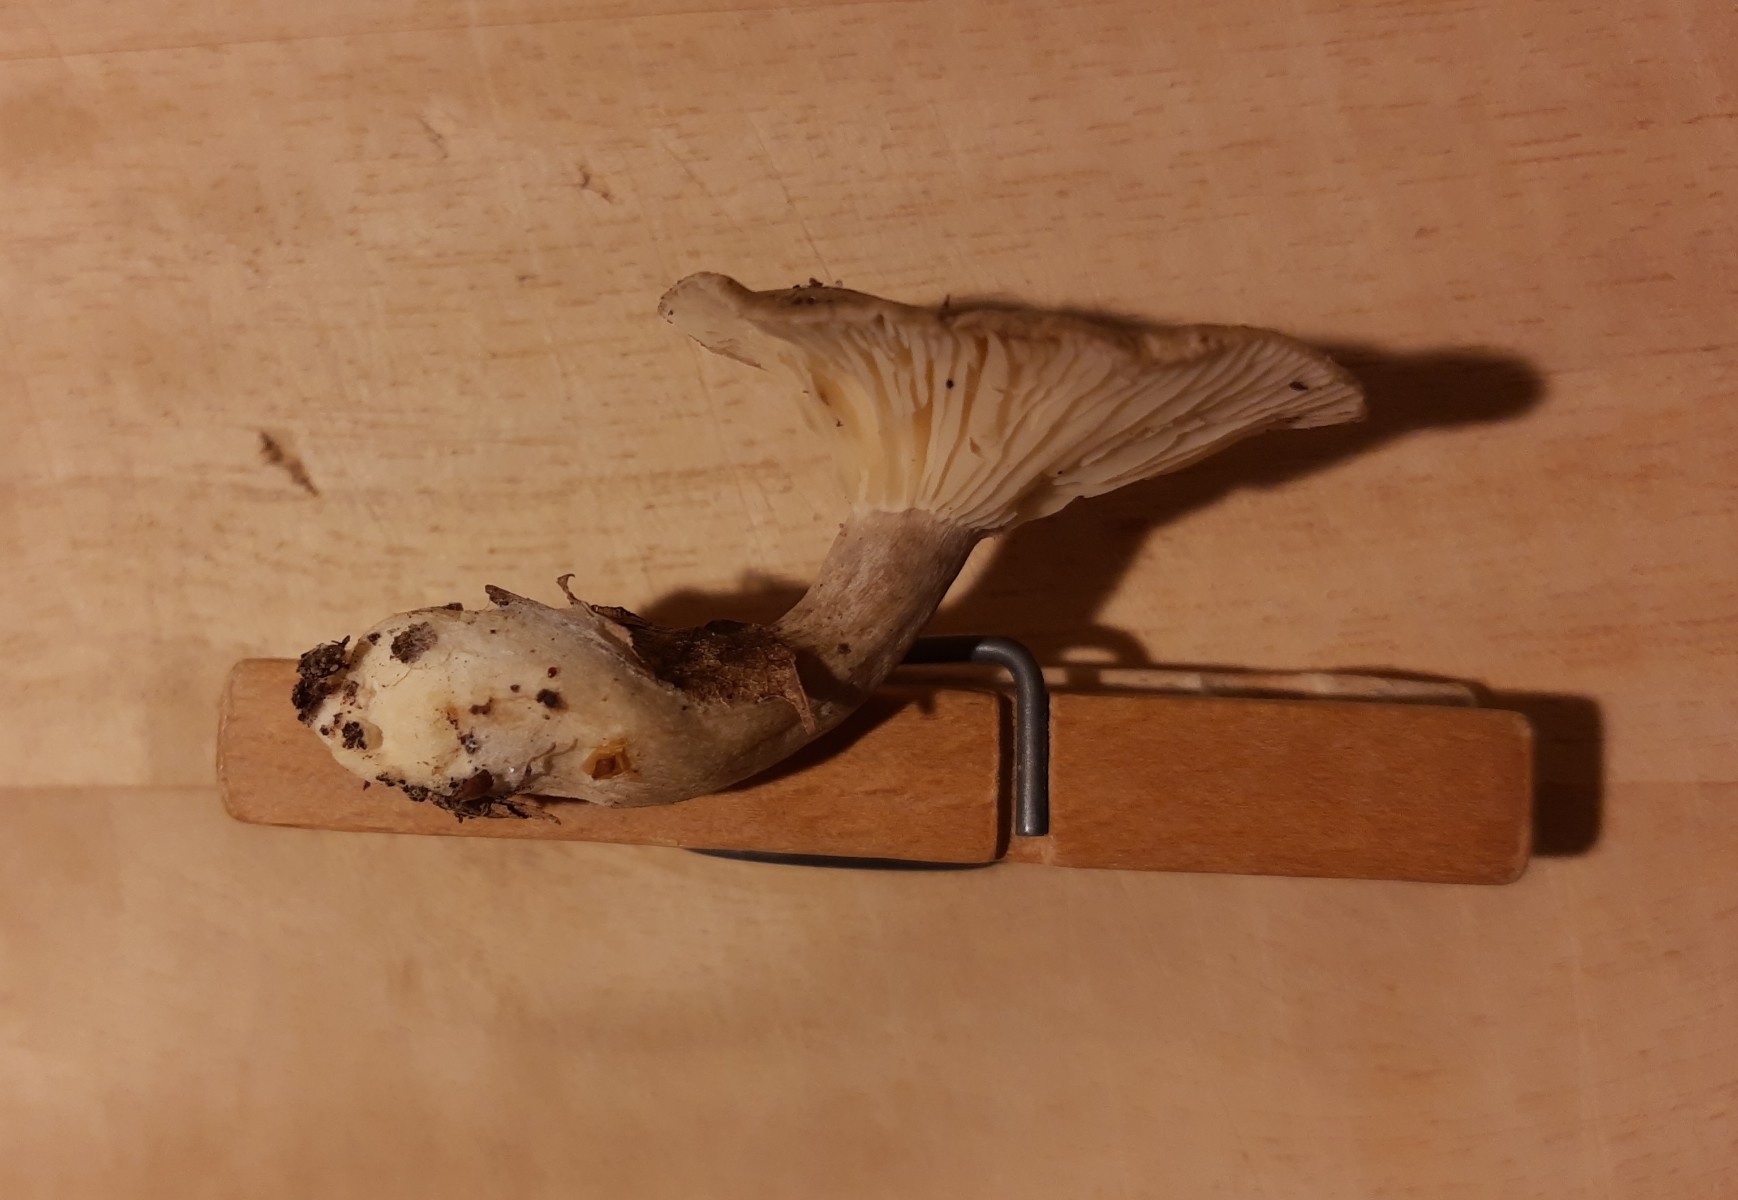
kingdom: Fungi
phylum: Basidiomycota
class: Agaricomycetes
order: Agaricales
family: Hygrophoraceae
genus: Ampulloclitocybe
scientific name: Ampulloclitocybe clavipes
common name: køllefod
